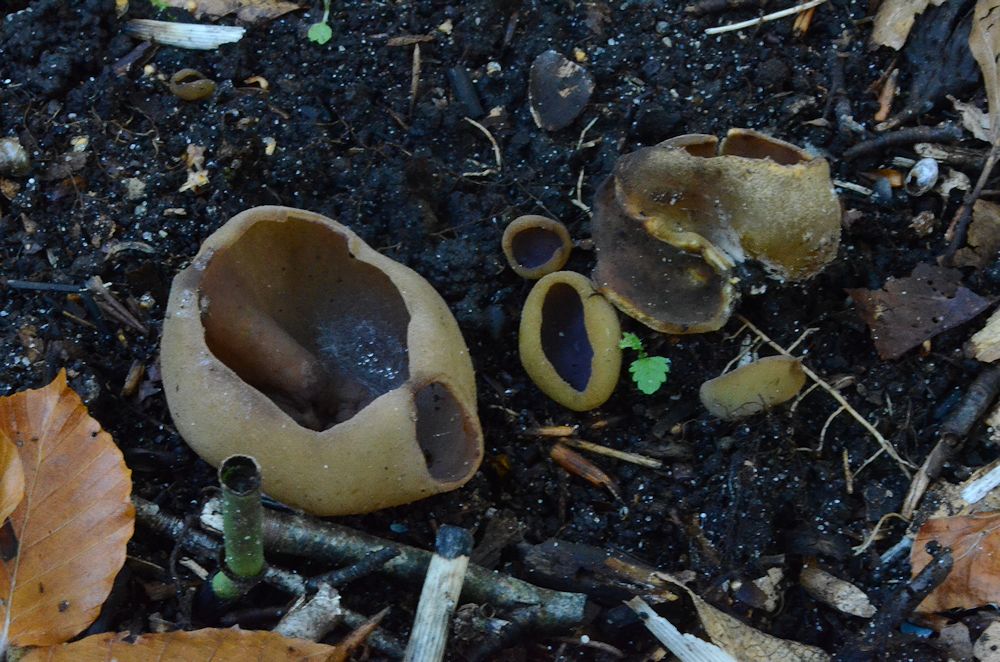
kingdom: Fungi
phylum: Ascomycota
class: Pezizomycetes
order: Pezizales
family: Pezizaceae
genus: Paragalactinia
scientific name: Paragalactinia michelii
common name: gulkødet bægersvamp
